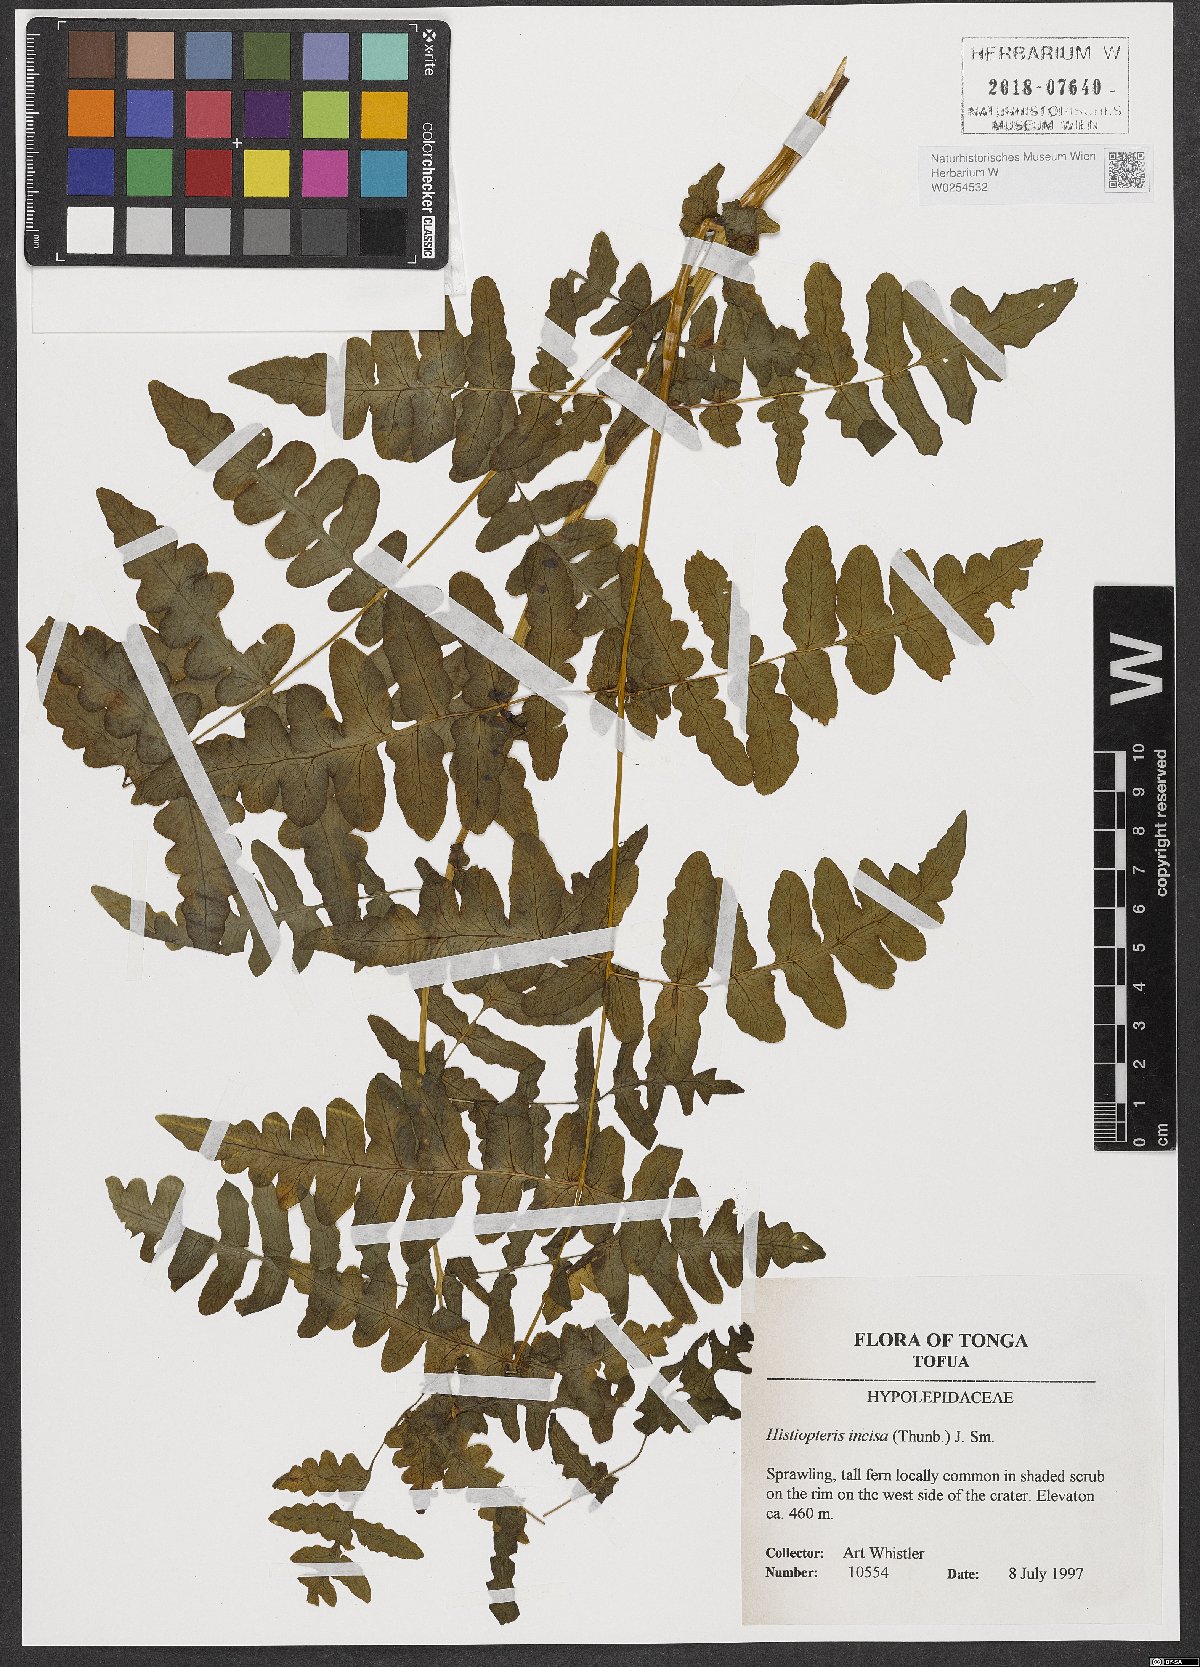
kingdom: Plantae
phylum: Tracheophyta
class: Polypodiopsida
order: Polypodiales
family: Dennstaedtiaceae
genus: Histiopteris
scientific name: Histiopteris incisa
